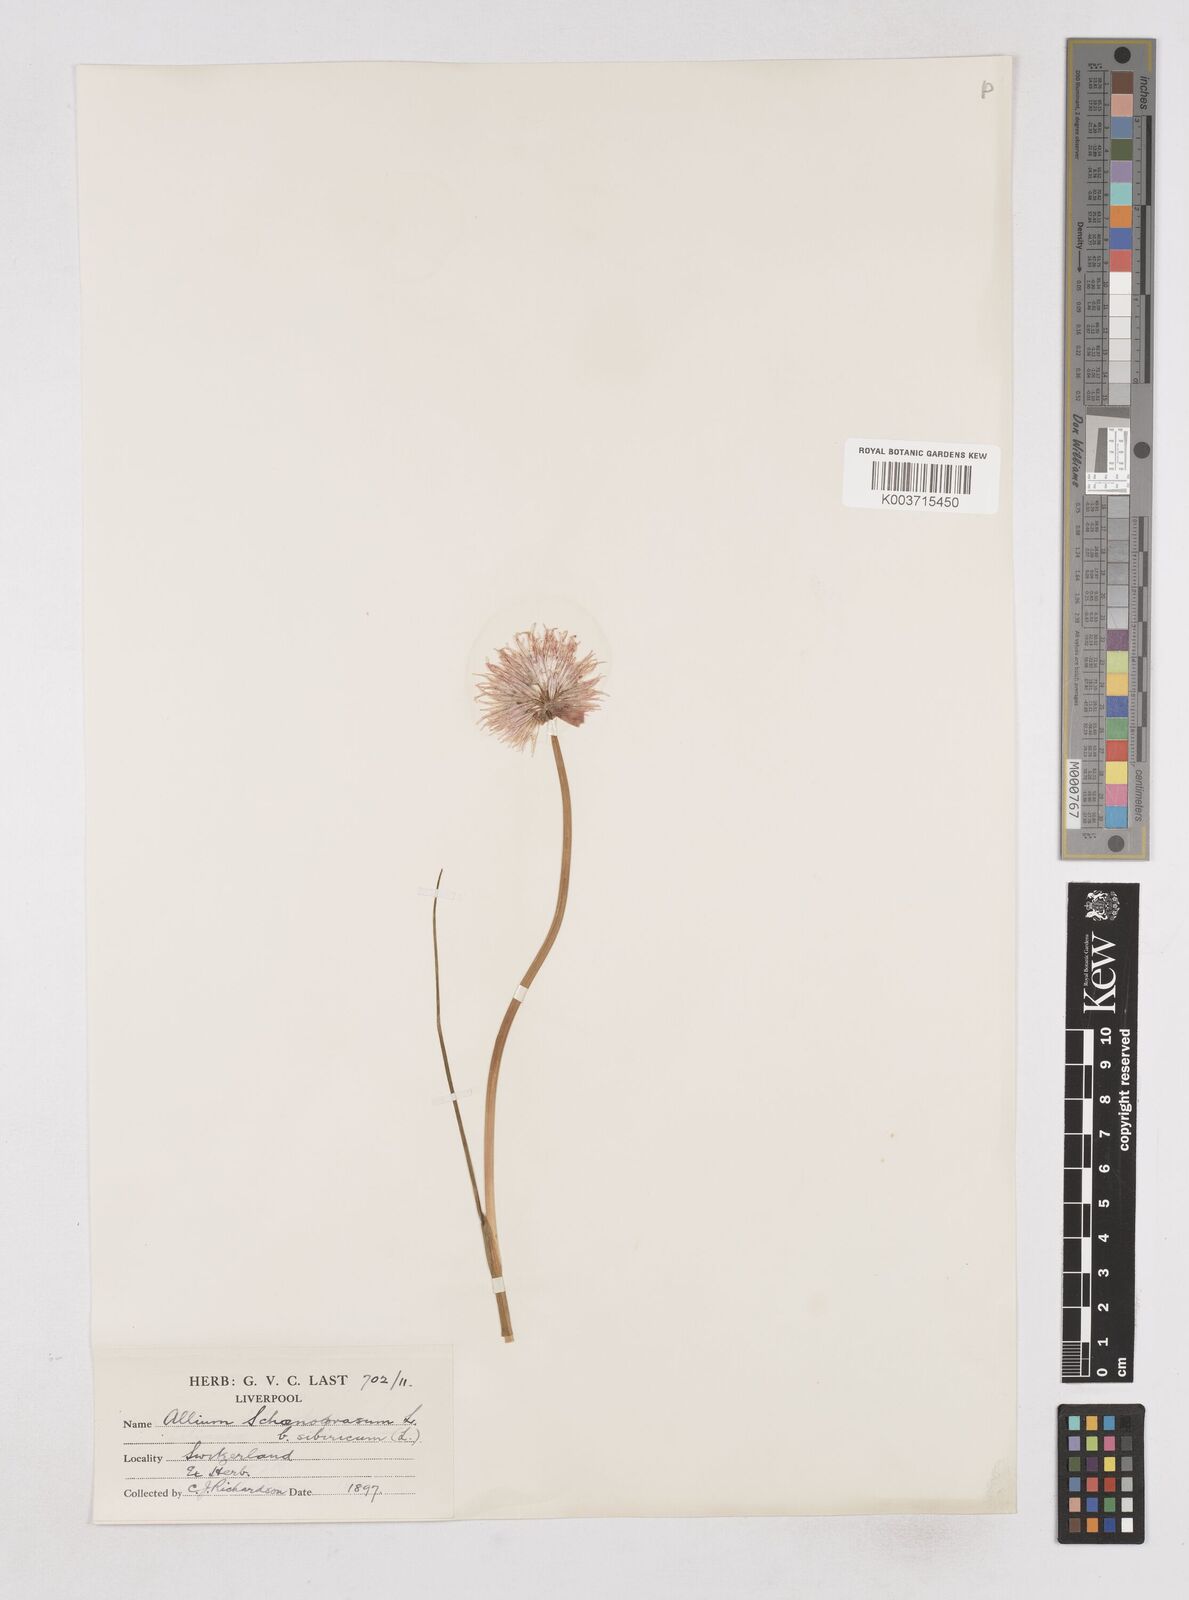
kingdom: Plantae
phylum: Tracheophyta
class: Liliopsida
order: Asparagales
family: Amaryllidaceae
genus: Allium
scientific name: Allium schoenoprasum
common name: Chives
